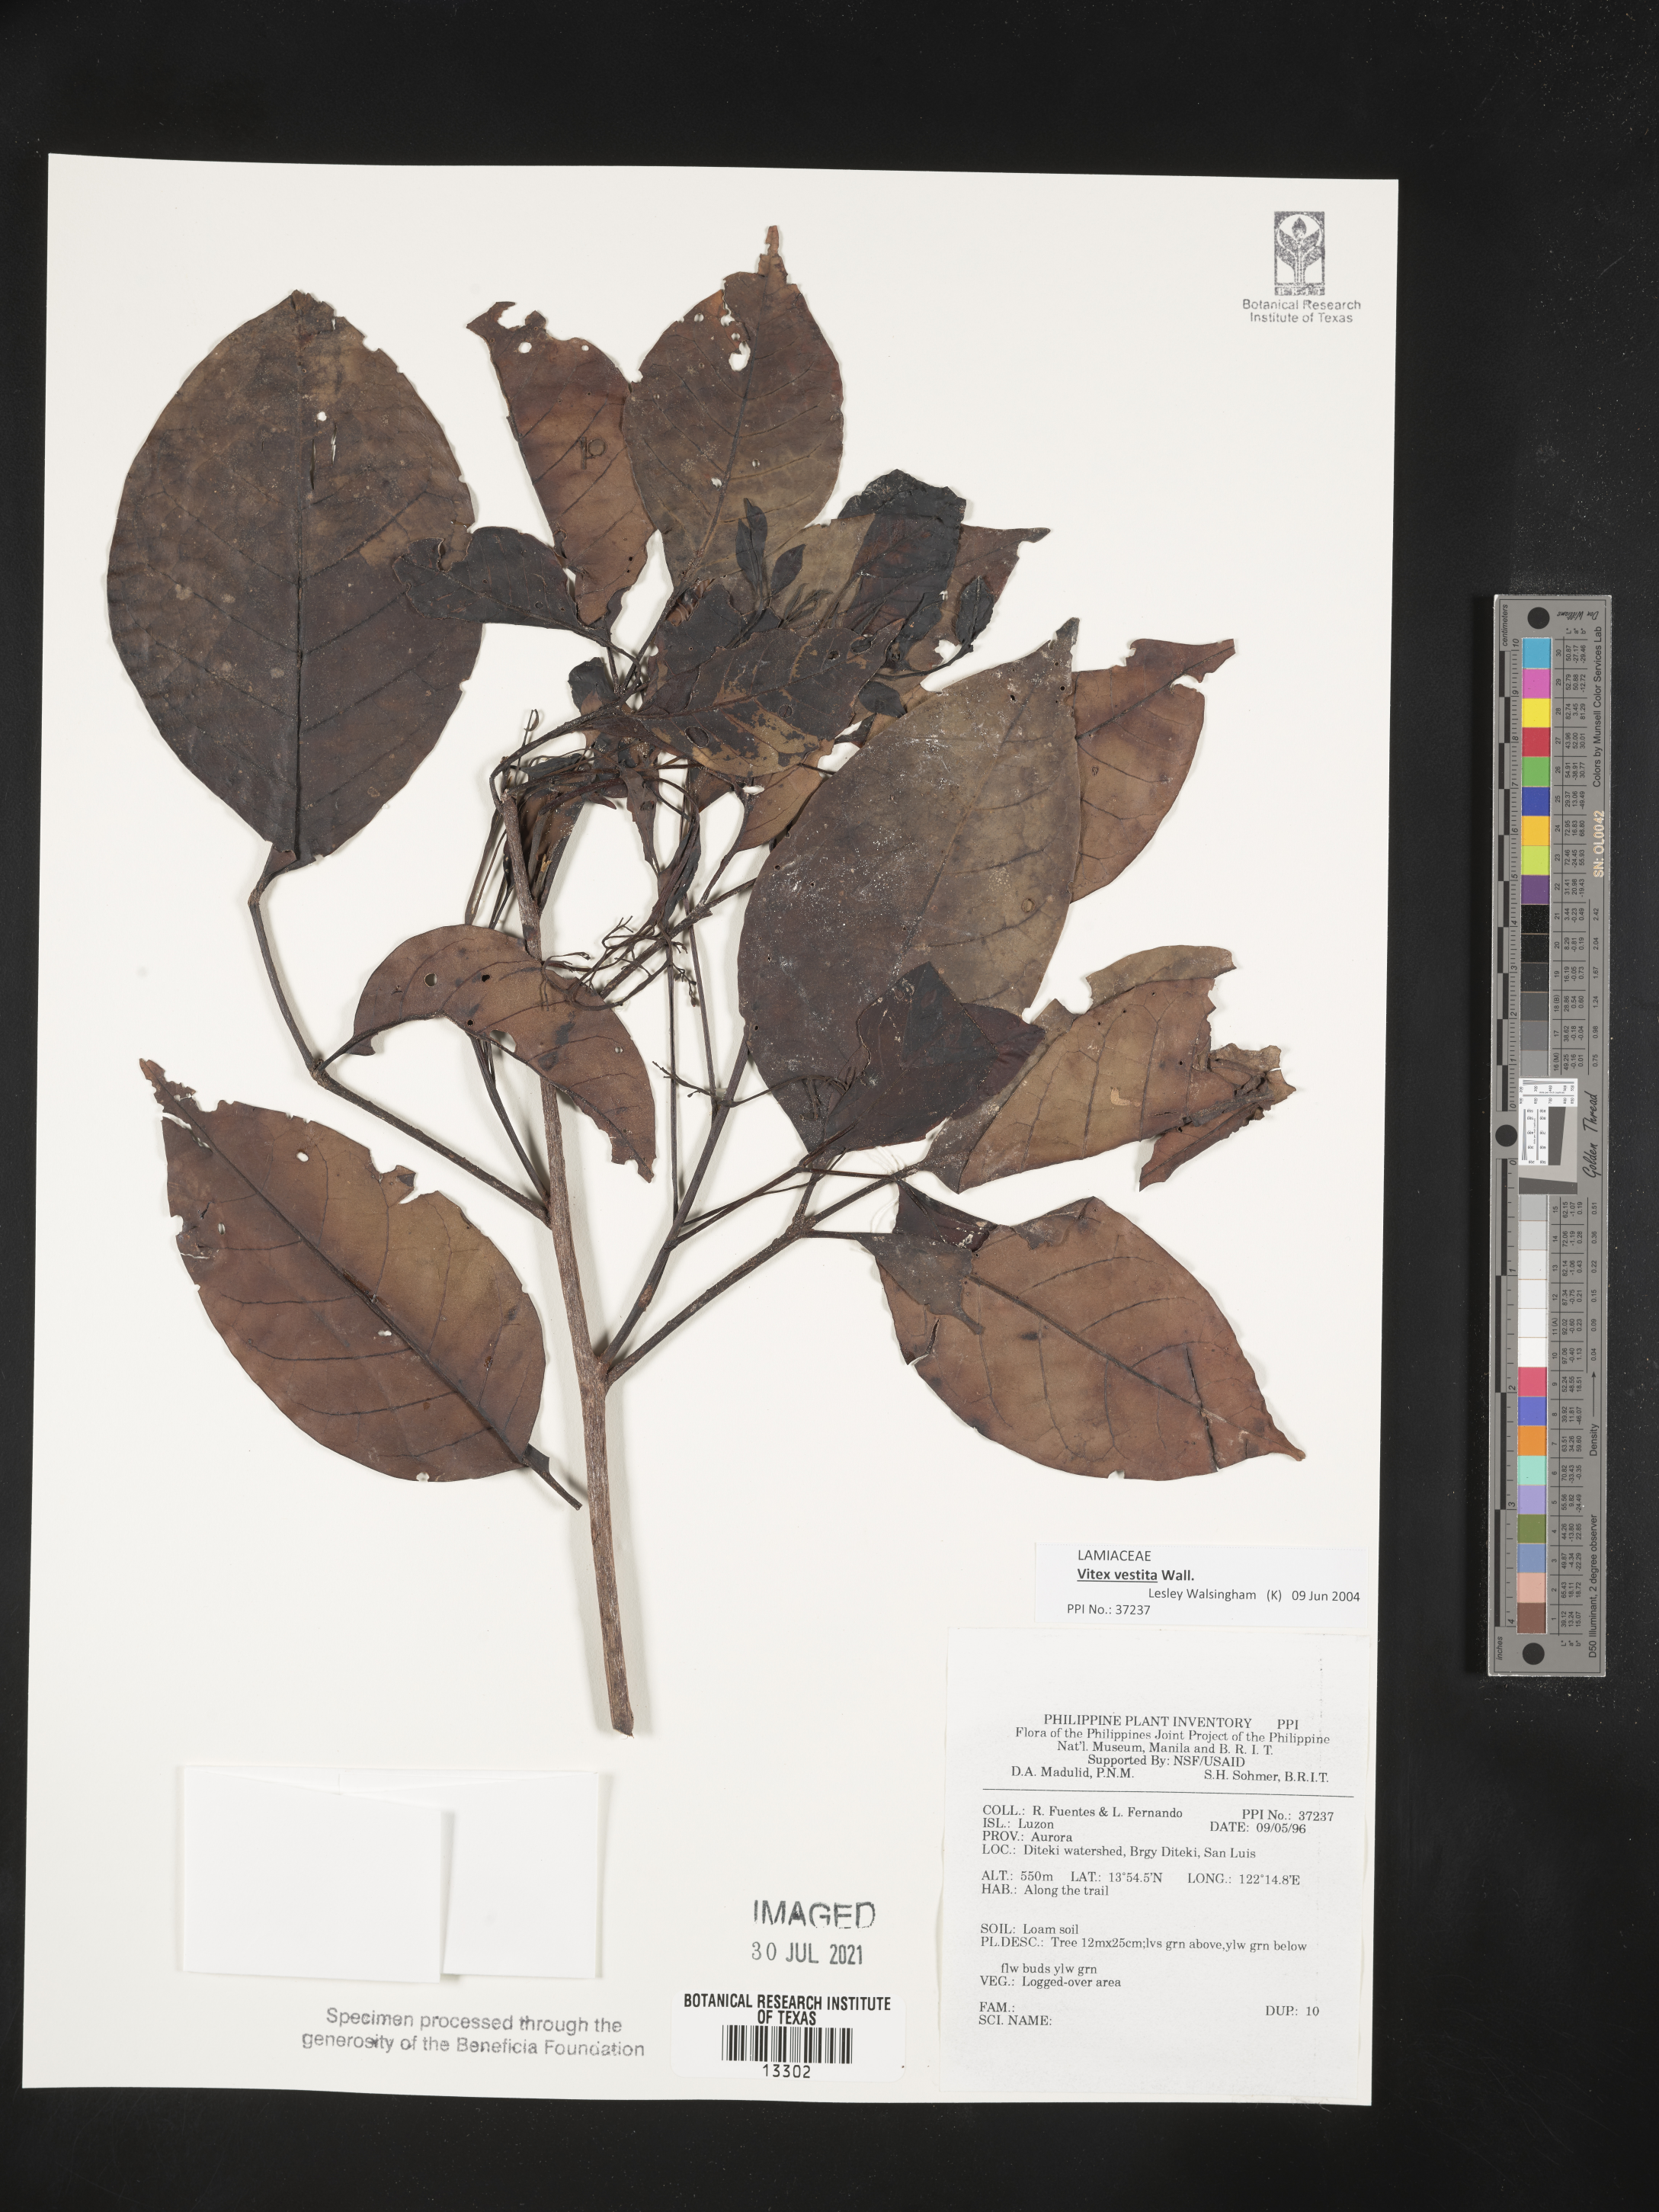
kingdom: Plantae
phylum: Tracheophyta
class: Magnoliopsida
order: Lamiales
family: Lamiaceae
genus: Vitex
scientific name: Vitex vestita
